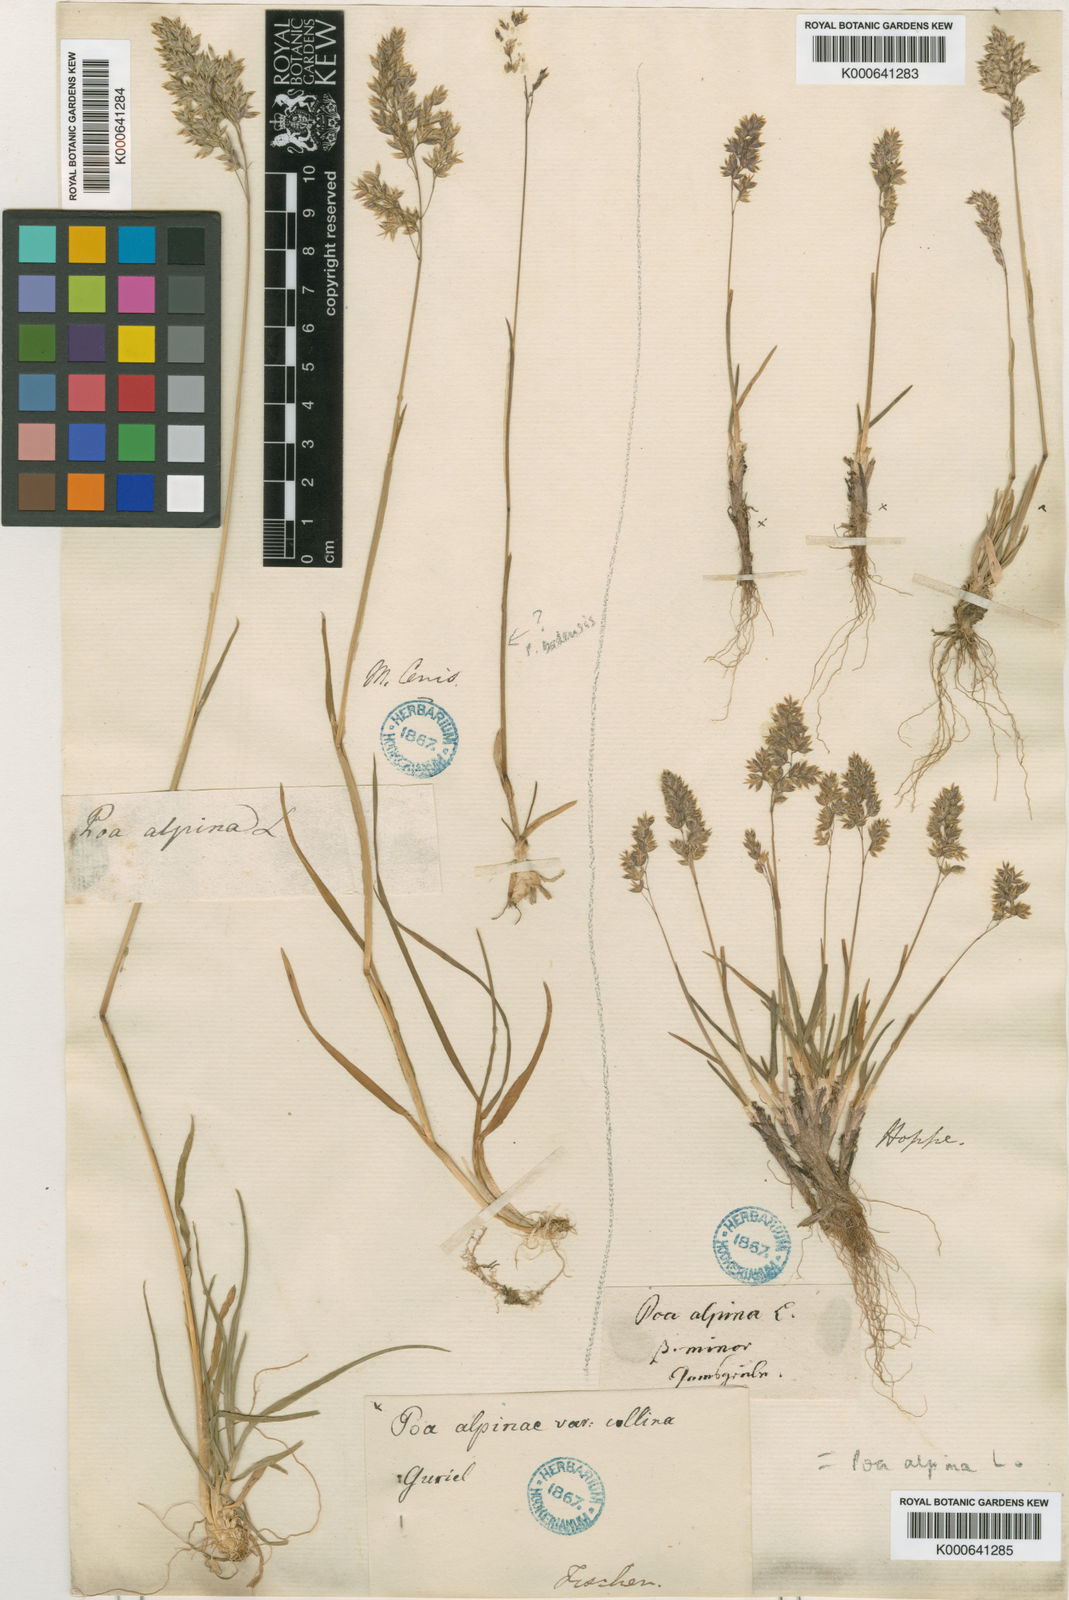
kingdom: Plantae
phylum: Tracheophyta
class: Liliopsida
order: Poales
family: Poaceae
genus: Poa
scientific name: Poa alpina
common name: Alpine bluegrass
